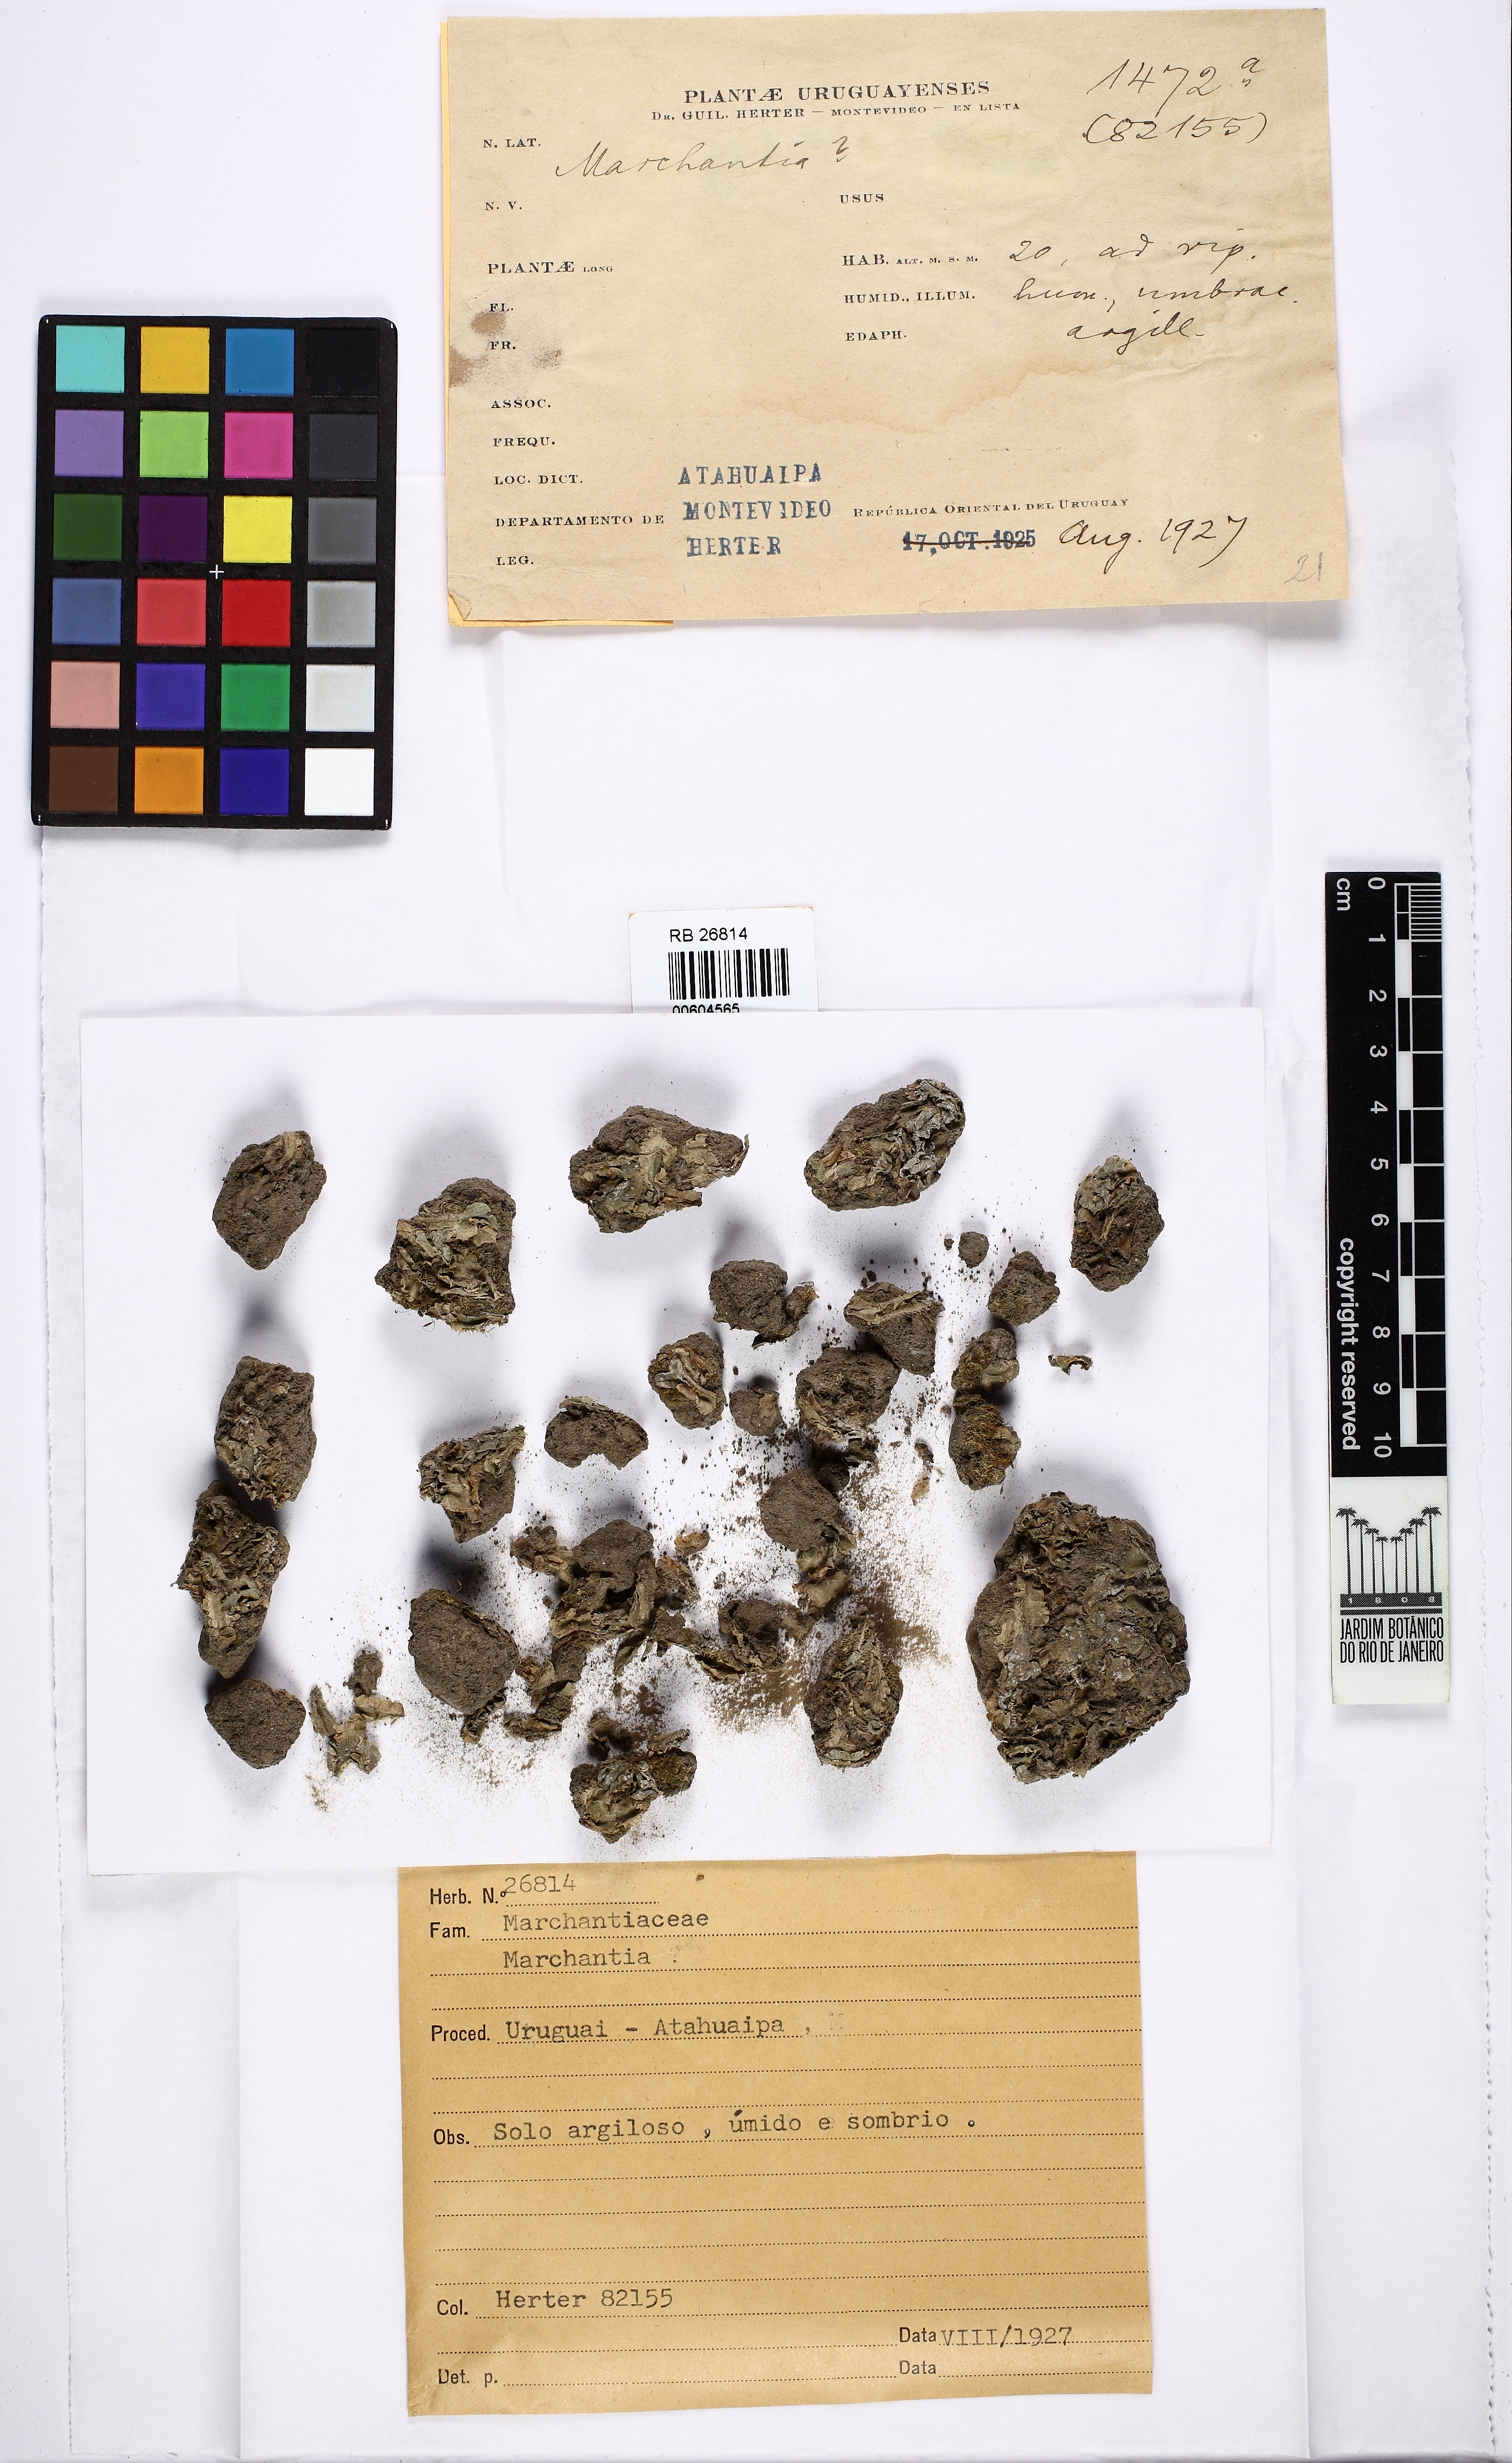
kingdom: Plantae
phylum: Marchantiophyta
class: Marchantiopsida
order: Marchantiales
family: Marchantiaceae
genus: Marchantia
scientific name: Marchantia
